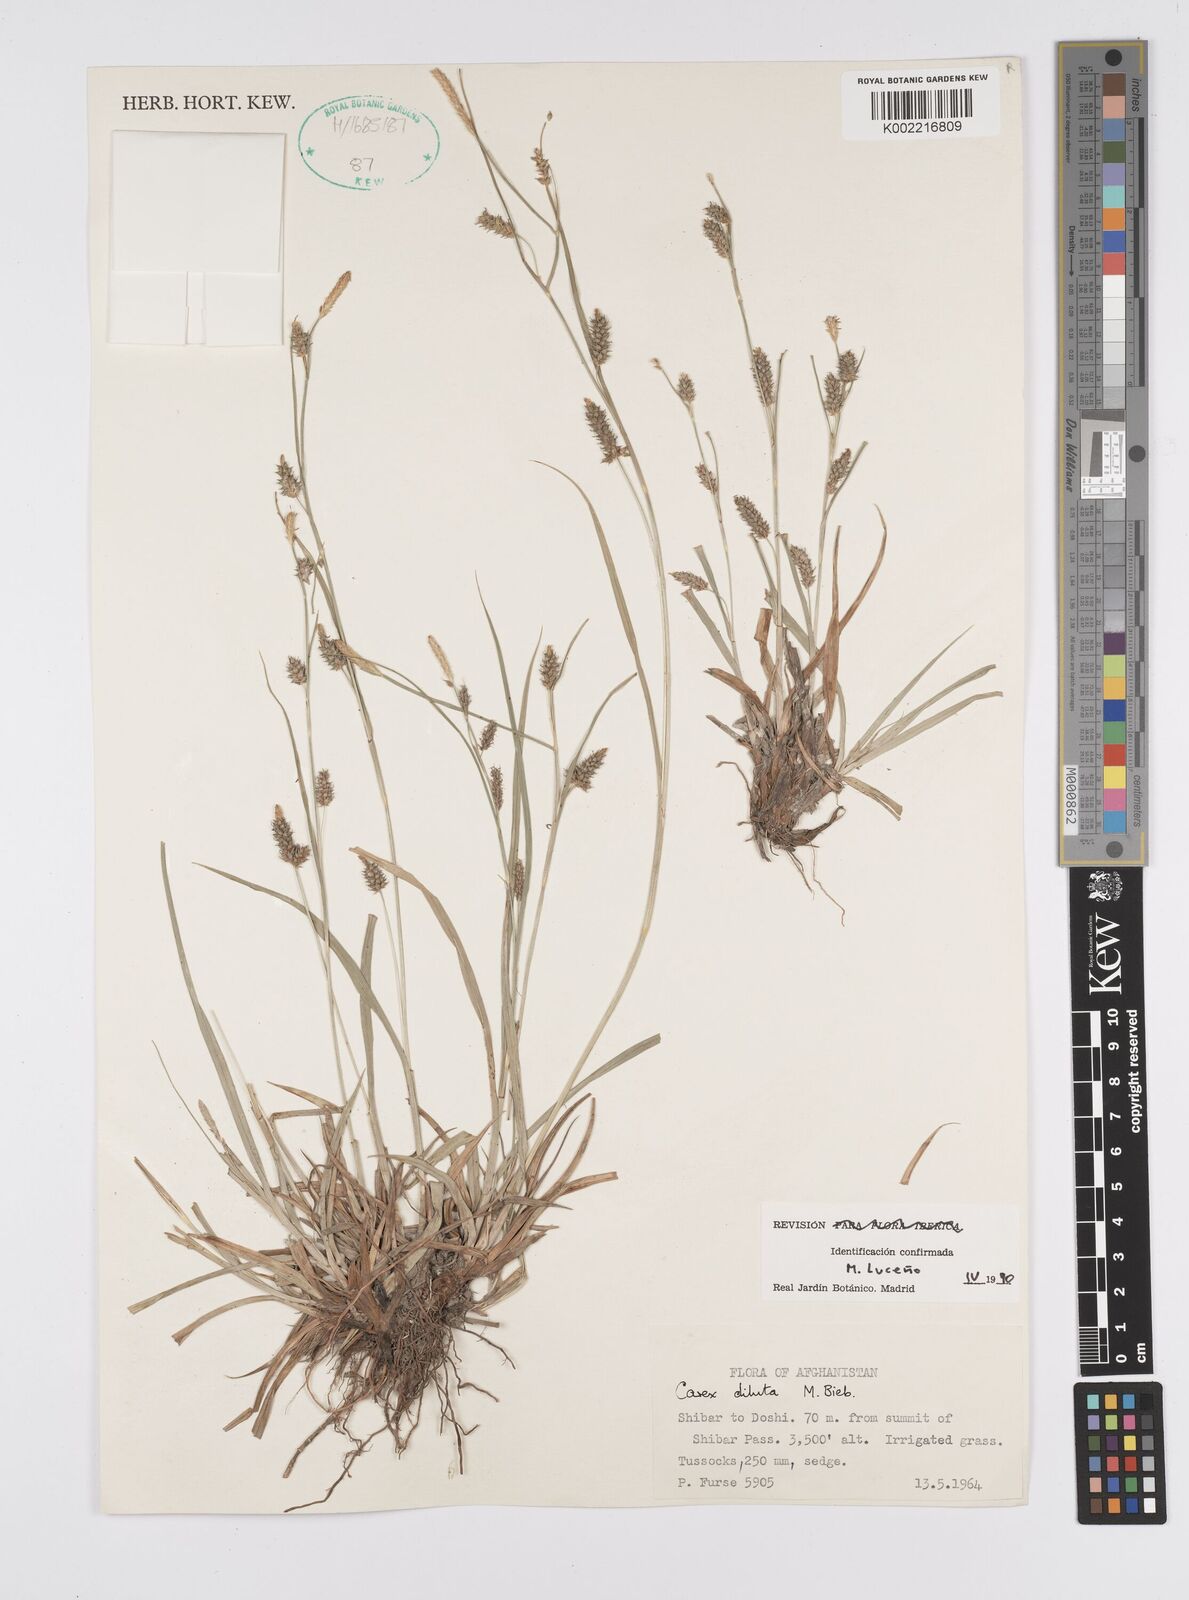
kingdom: Plantae
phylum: Tracheophyta
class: Liliopsida
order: Poales
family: Cyperaceae
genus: Carex
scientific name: Carex diluta
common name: Sedge
